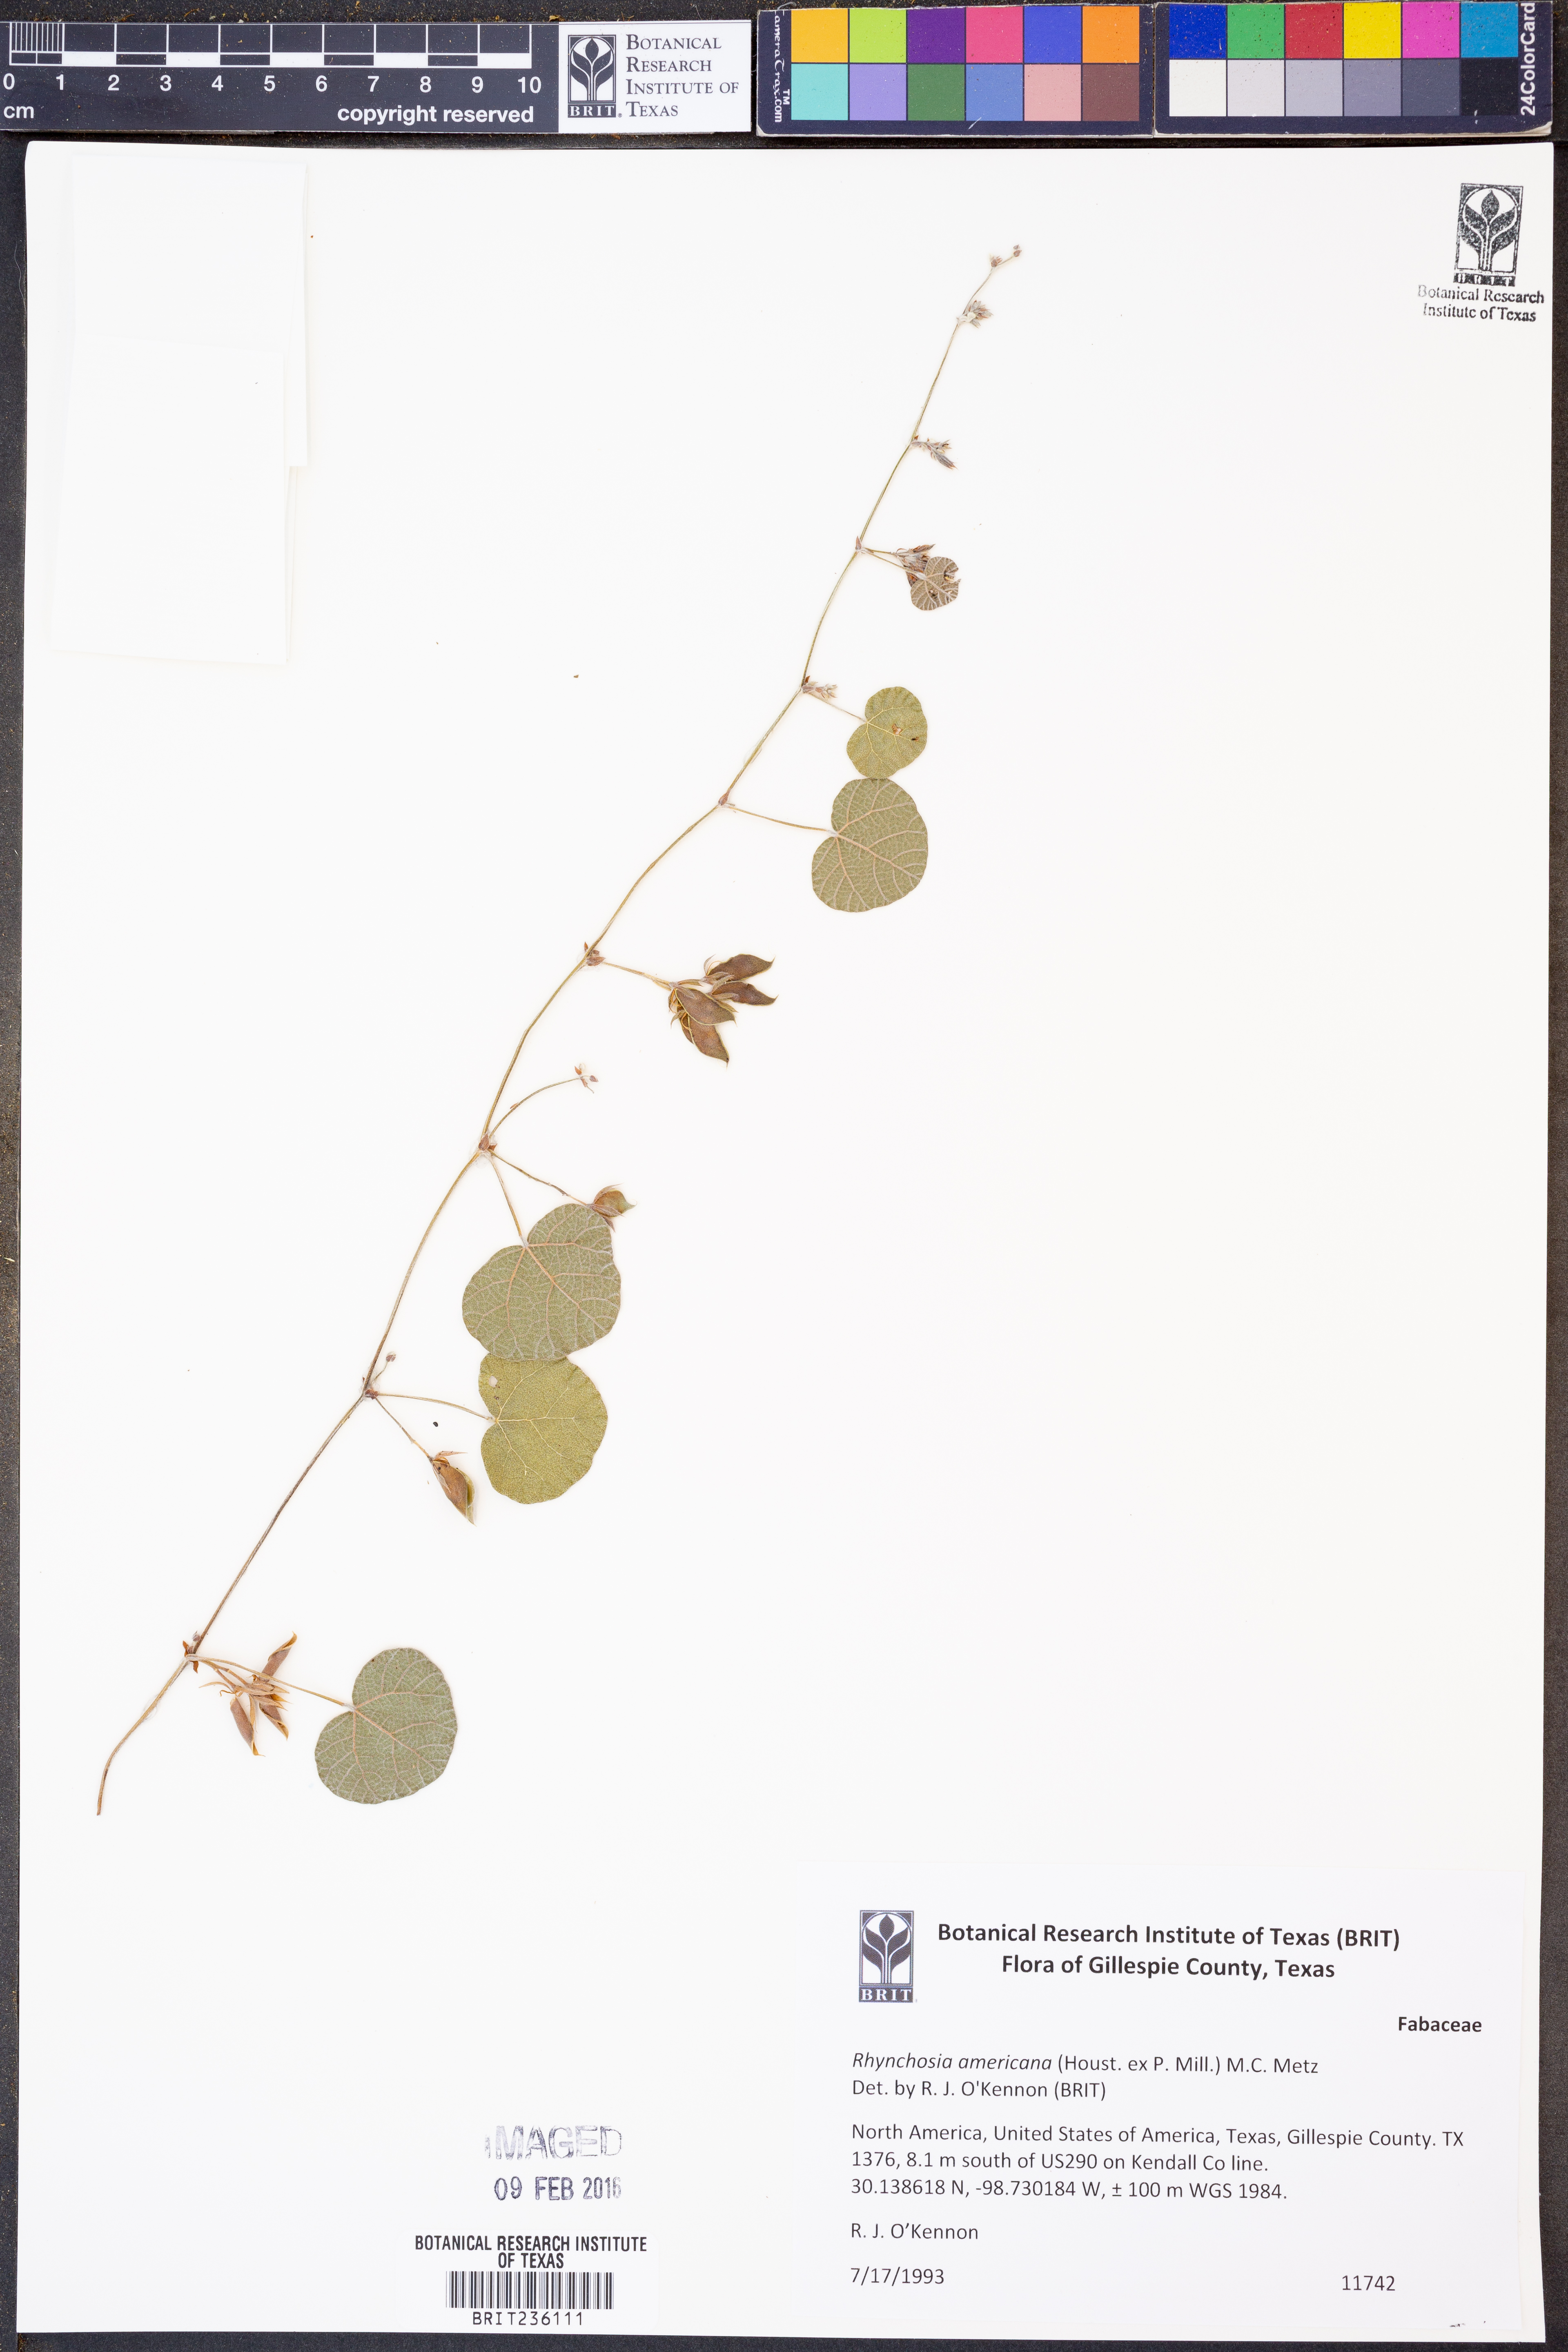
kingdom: Plantae
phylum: Tracheophyta
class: Magnoliopsida
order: Fabales
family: Fabaceae
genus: Rhynchosia
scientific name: Rhynchosia americana
